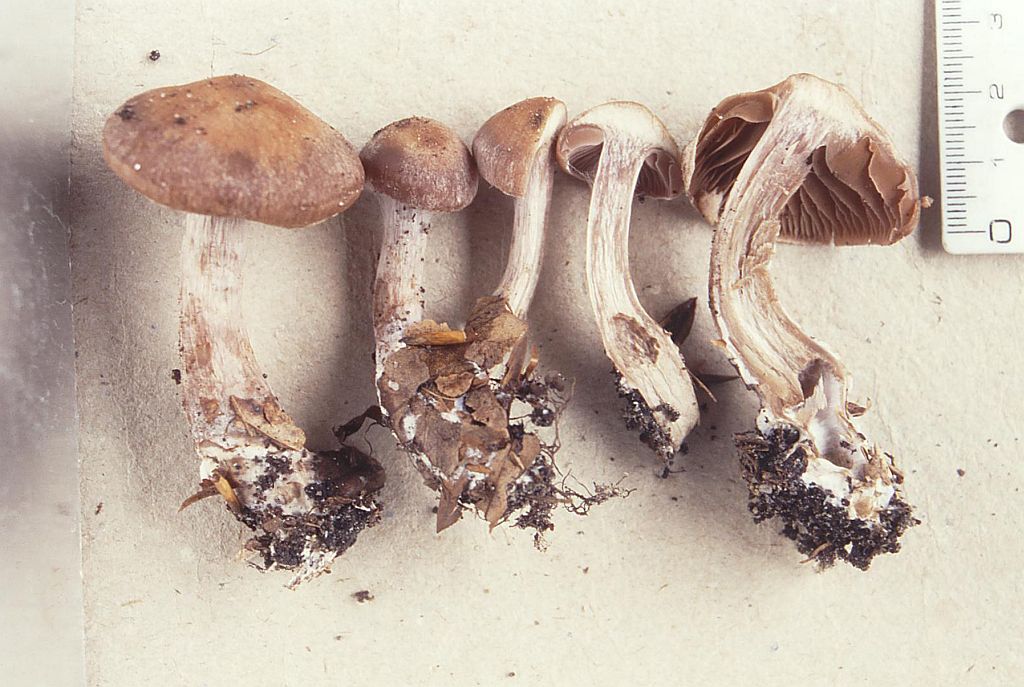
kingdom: Fungi
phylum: Basidiomycota
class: Agaricomycetes
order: Agaricales
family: Cortinariaceae
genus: Cortinarius
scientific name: Cortinarius subserratissimus
